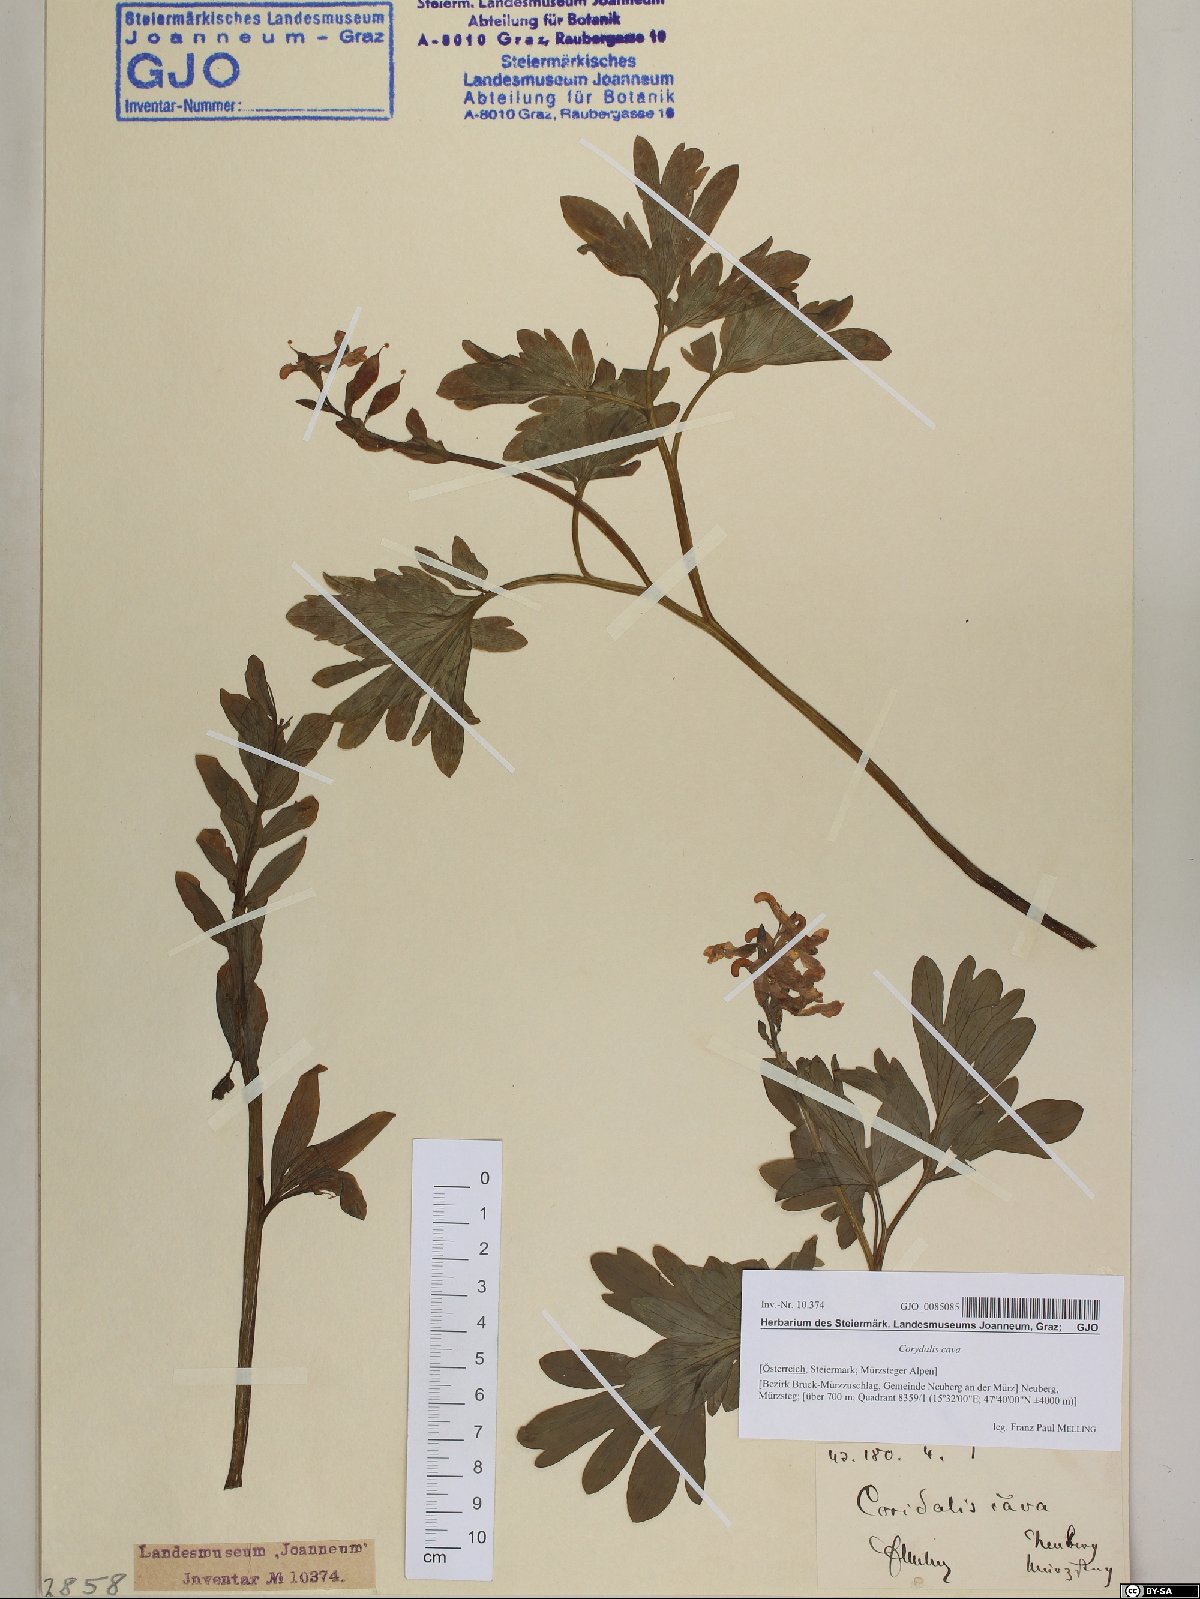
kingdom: Plantae
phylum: Tracheophyta
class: Magnoliopsida
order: Ranunculales
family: Papaveraceae
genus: Corydalis
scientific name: Corydalis cava
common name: Hollowroot
